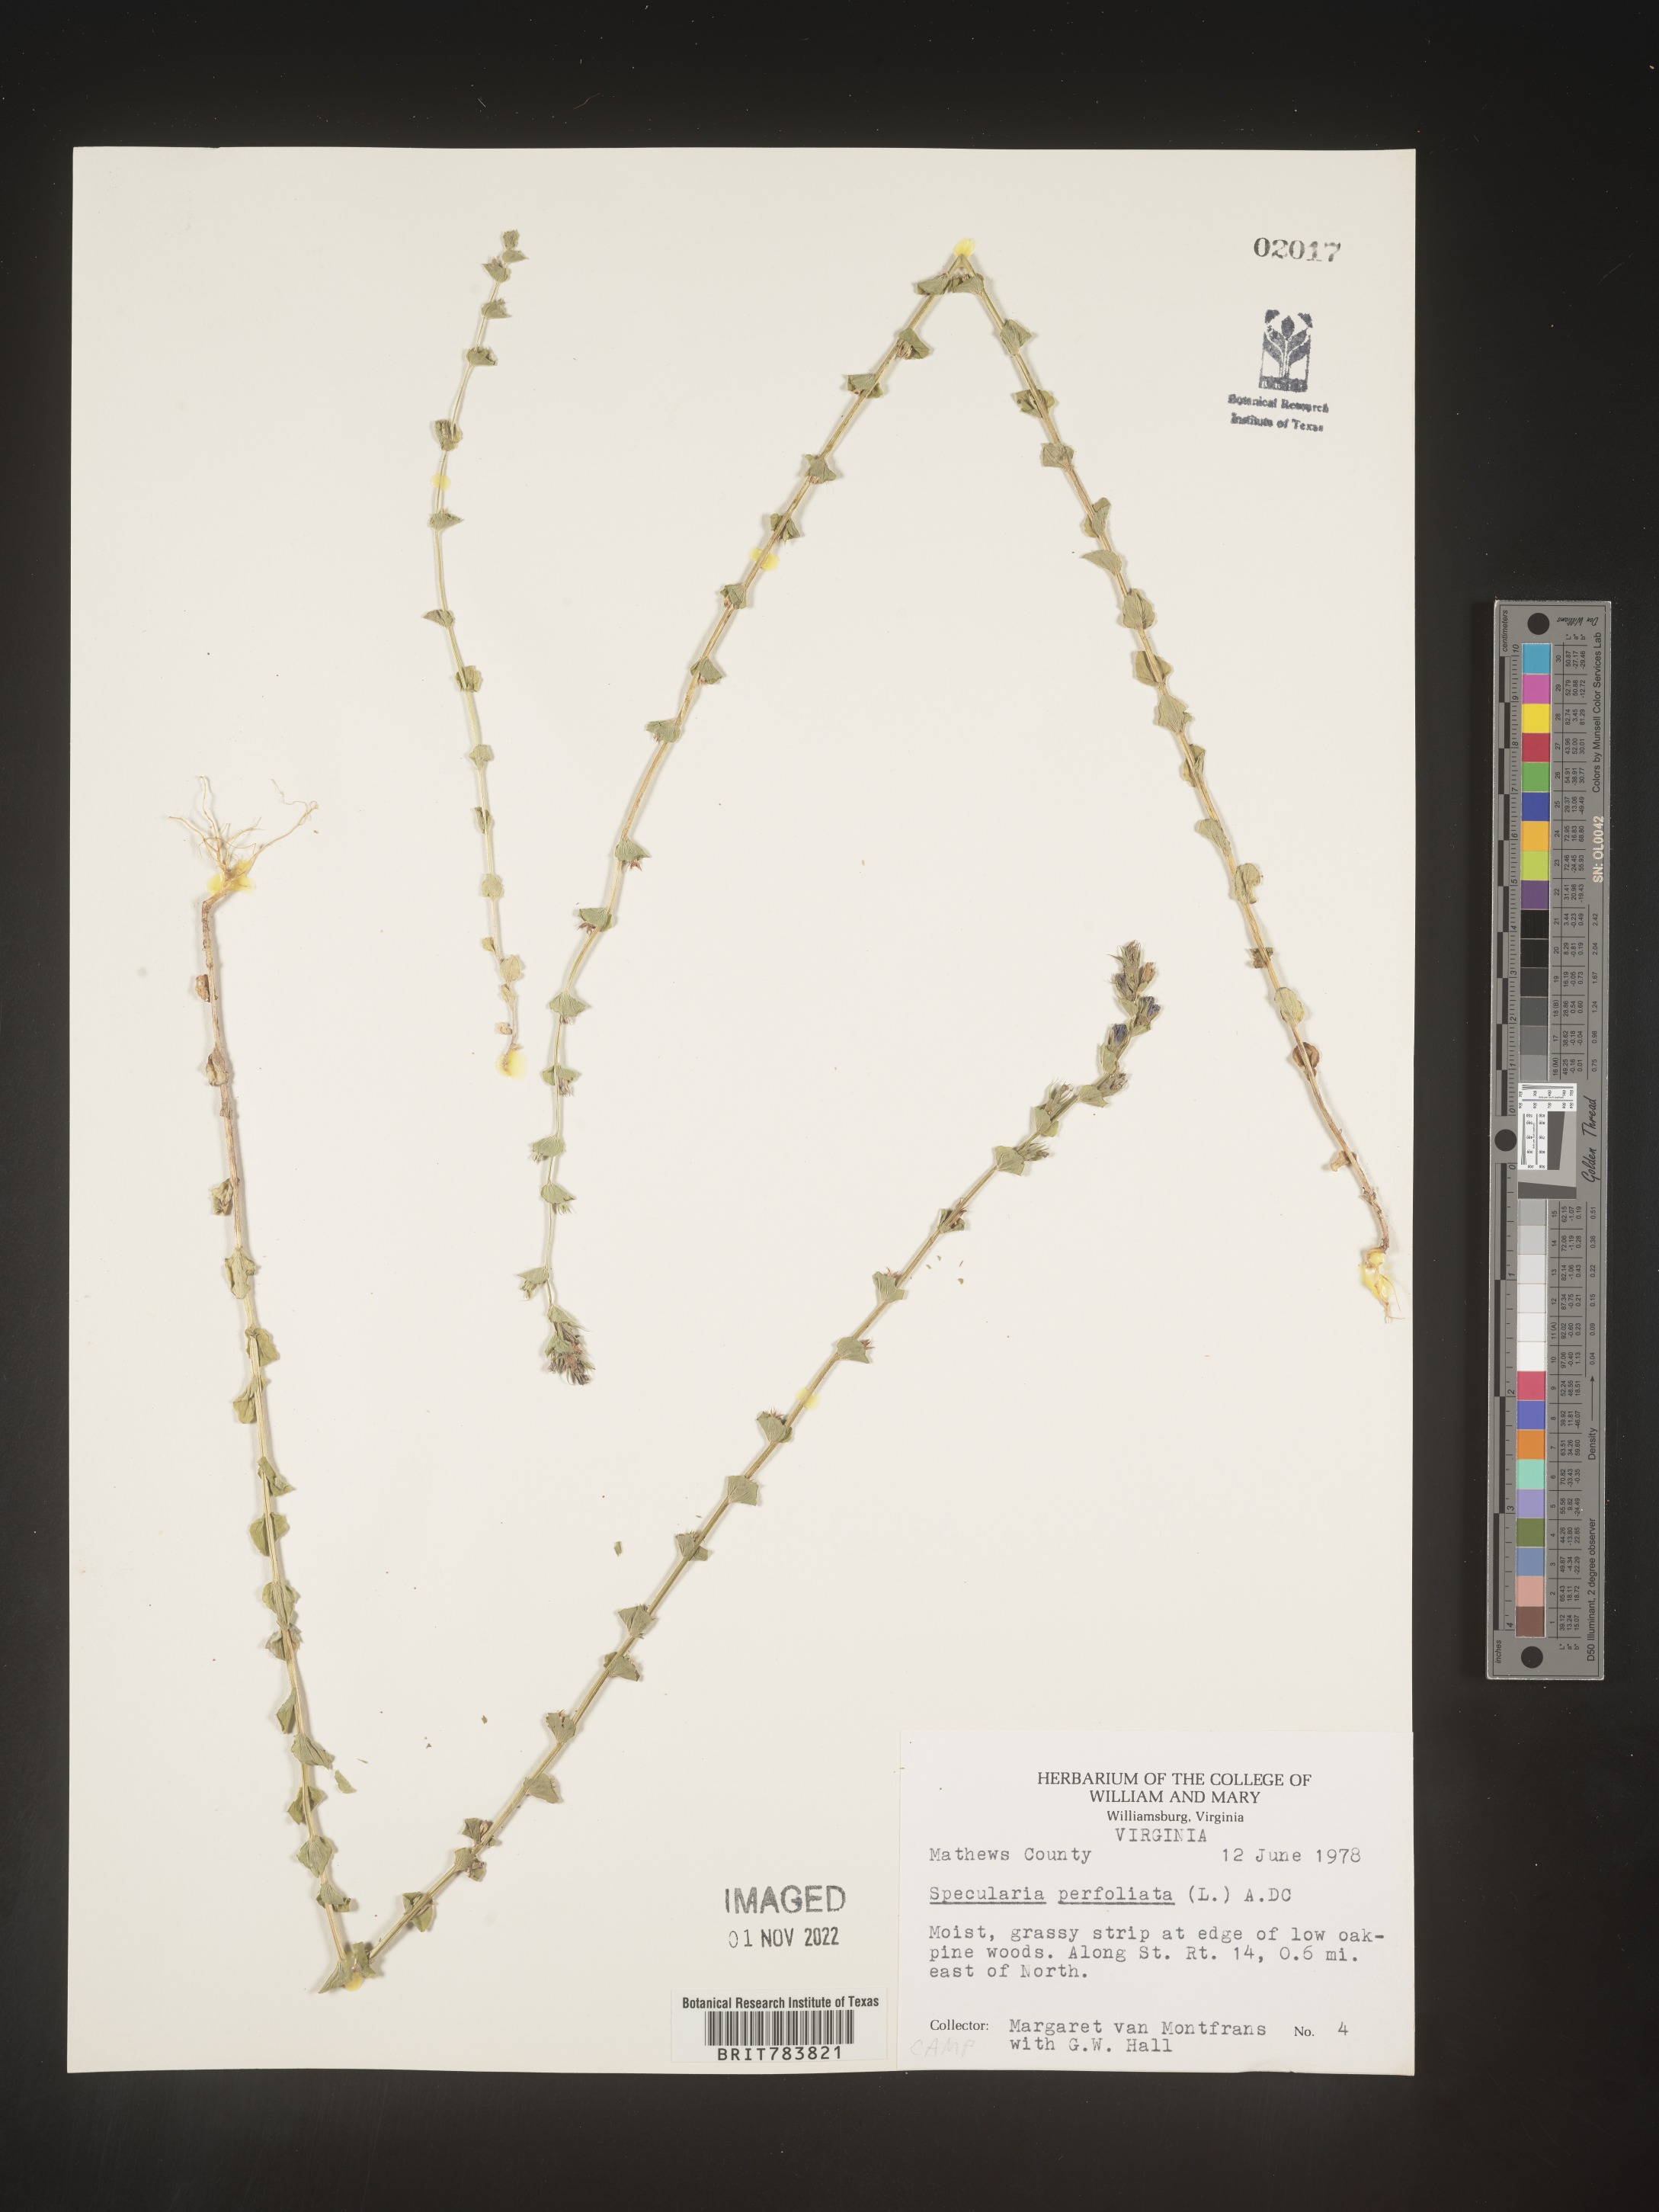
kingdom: Plantae
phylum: Tracheophyta
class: Magnoliopsida
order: Asterales
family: Campanulaceae
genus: Triodanis
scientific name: Triodanis perfoliata
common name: Clasping venus' looking-glass
